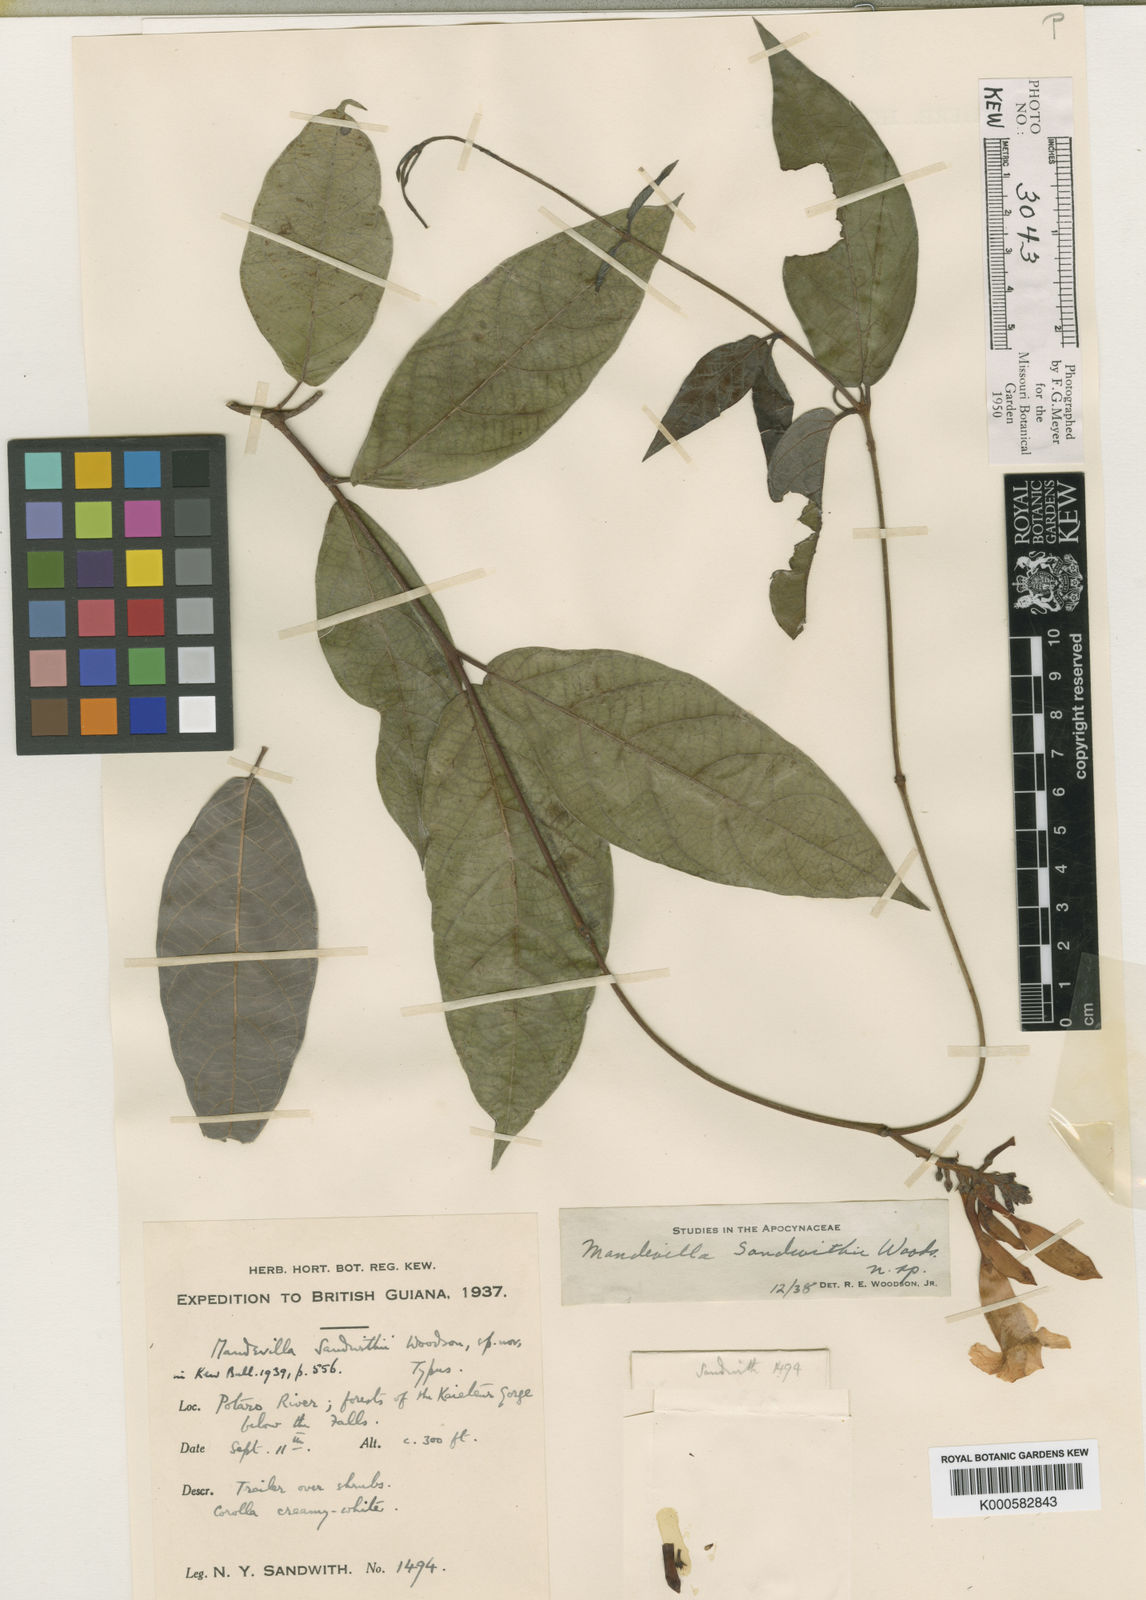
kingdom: Plantae
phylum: Tracheophyta
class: Magnoliopsida
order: Gentianales
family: Apocynaceae
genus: Mandevilla
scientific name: Mandevilla sandwithii
